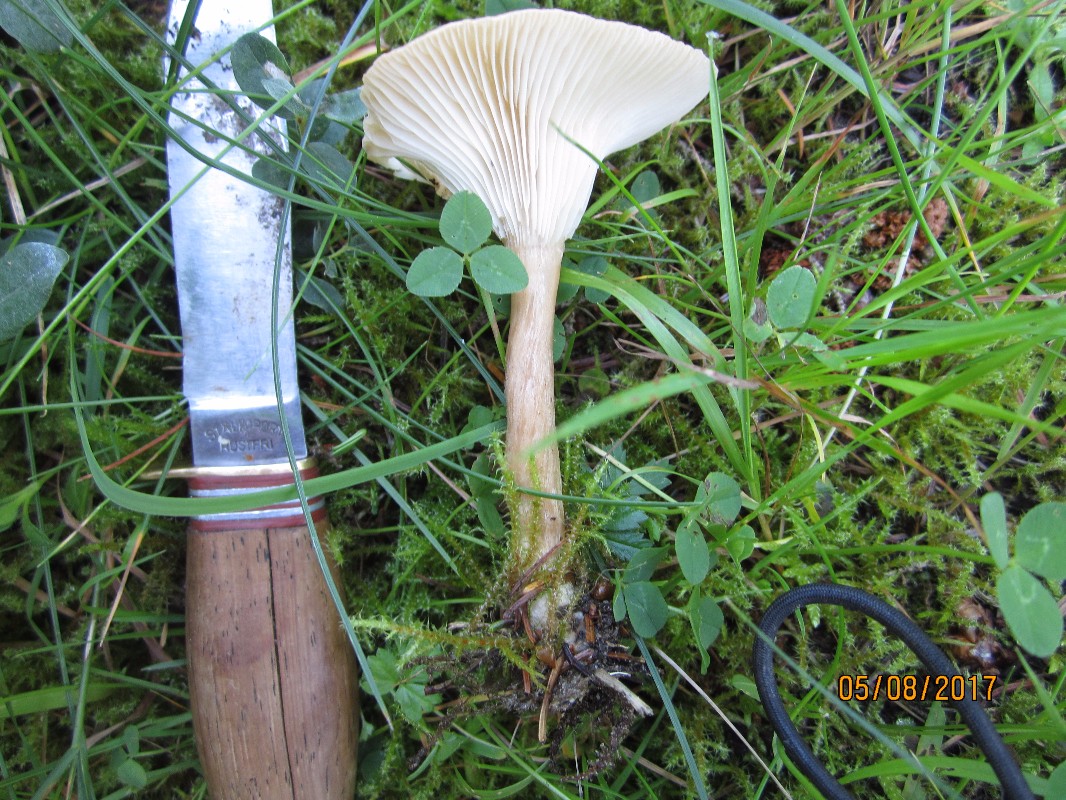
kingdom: Fungi
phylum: Basidiomycota
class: Agaricomycetes
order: Agaricales
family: Tricholomataceae
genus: Infundibulicybe
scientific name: Infundibulicybe squamulosa
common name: småskællet tragthat
